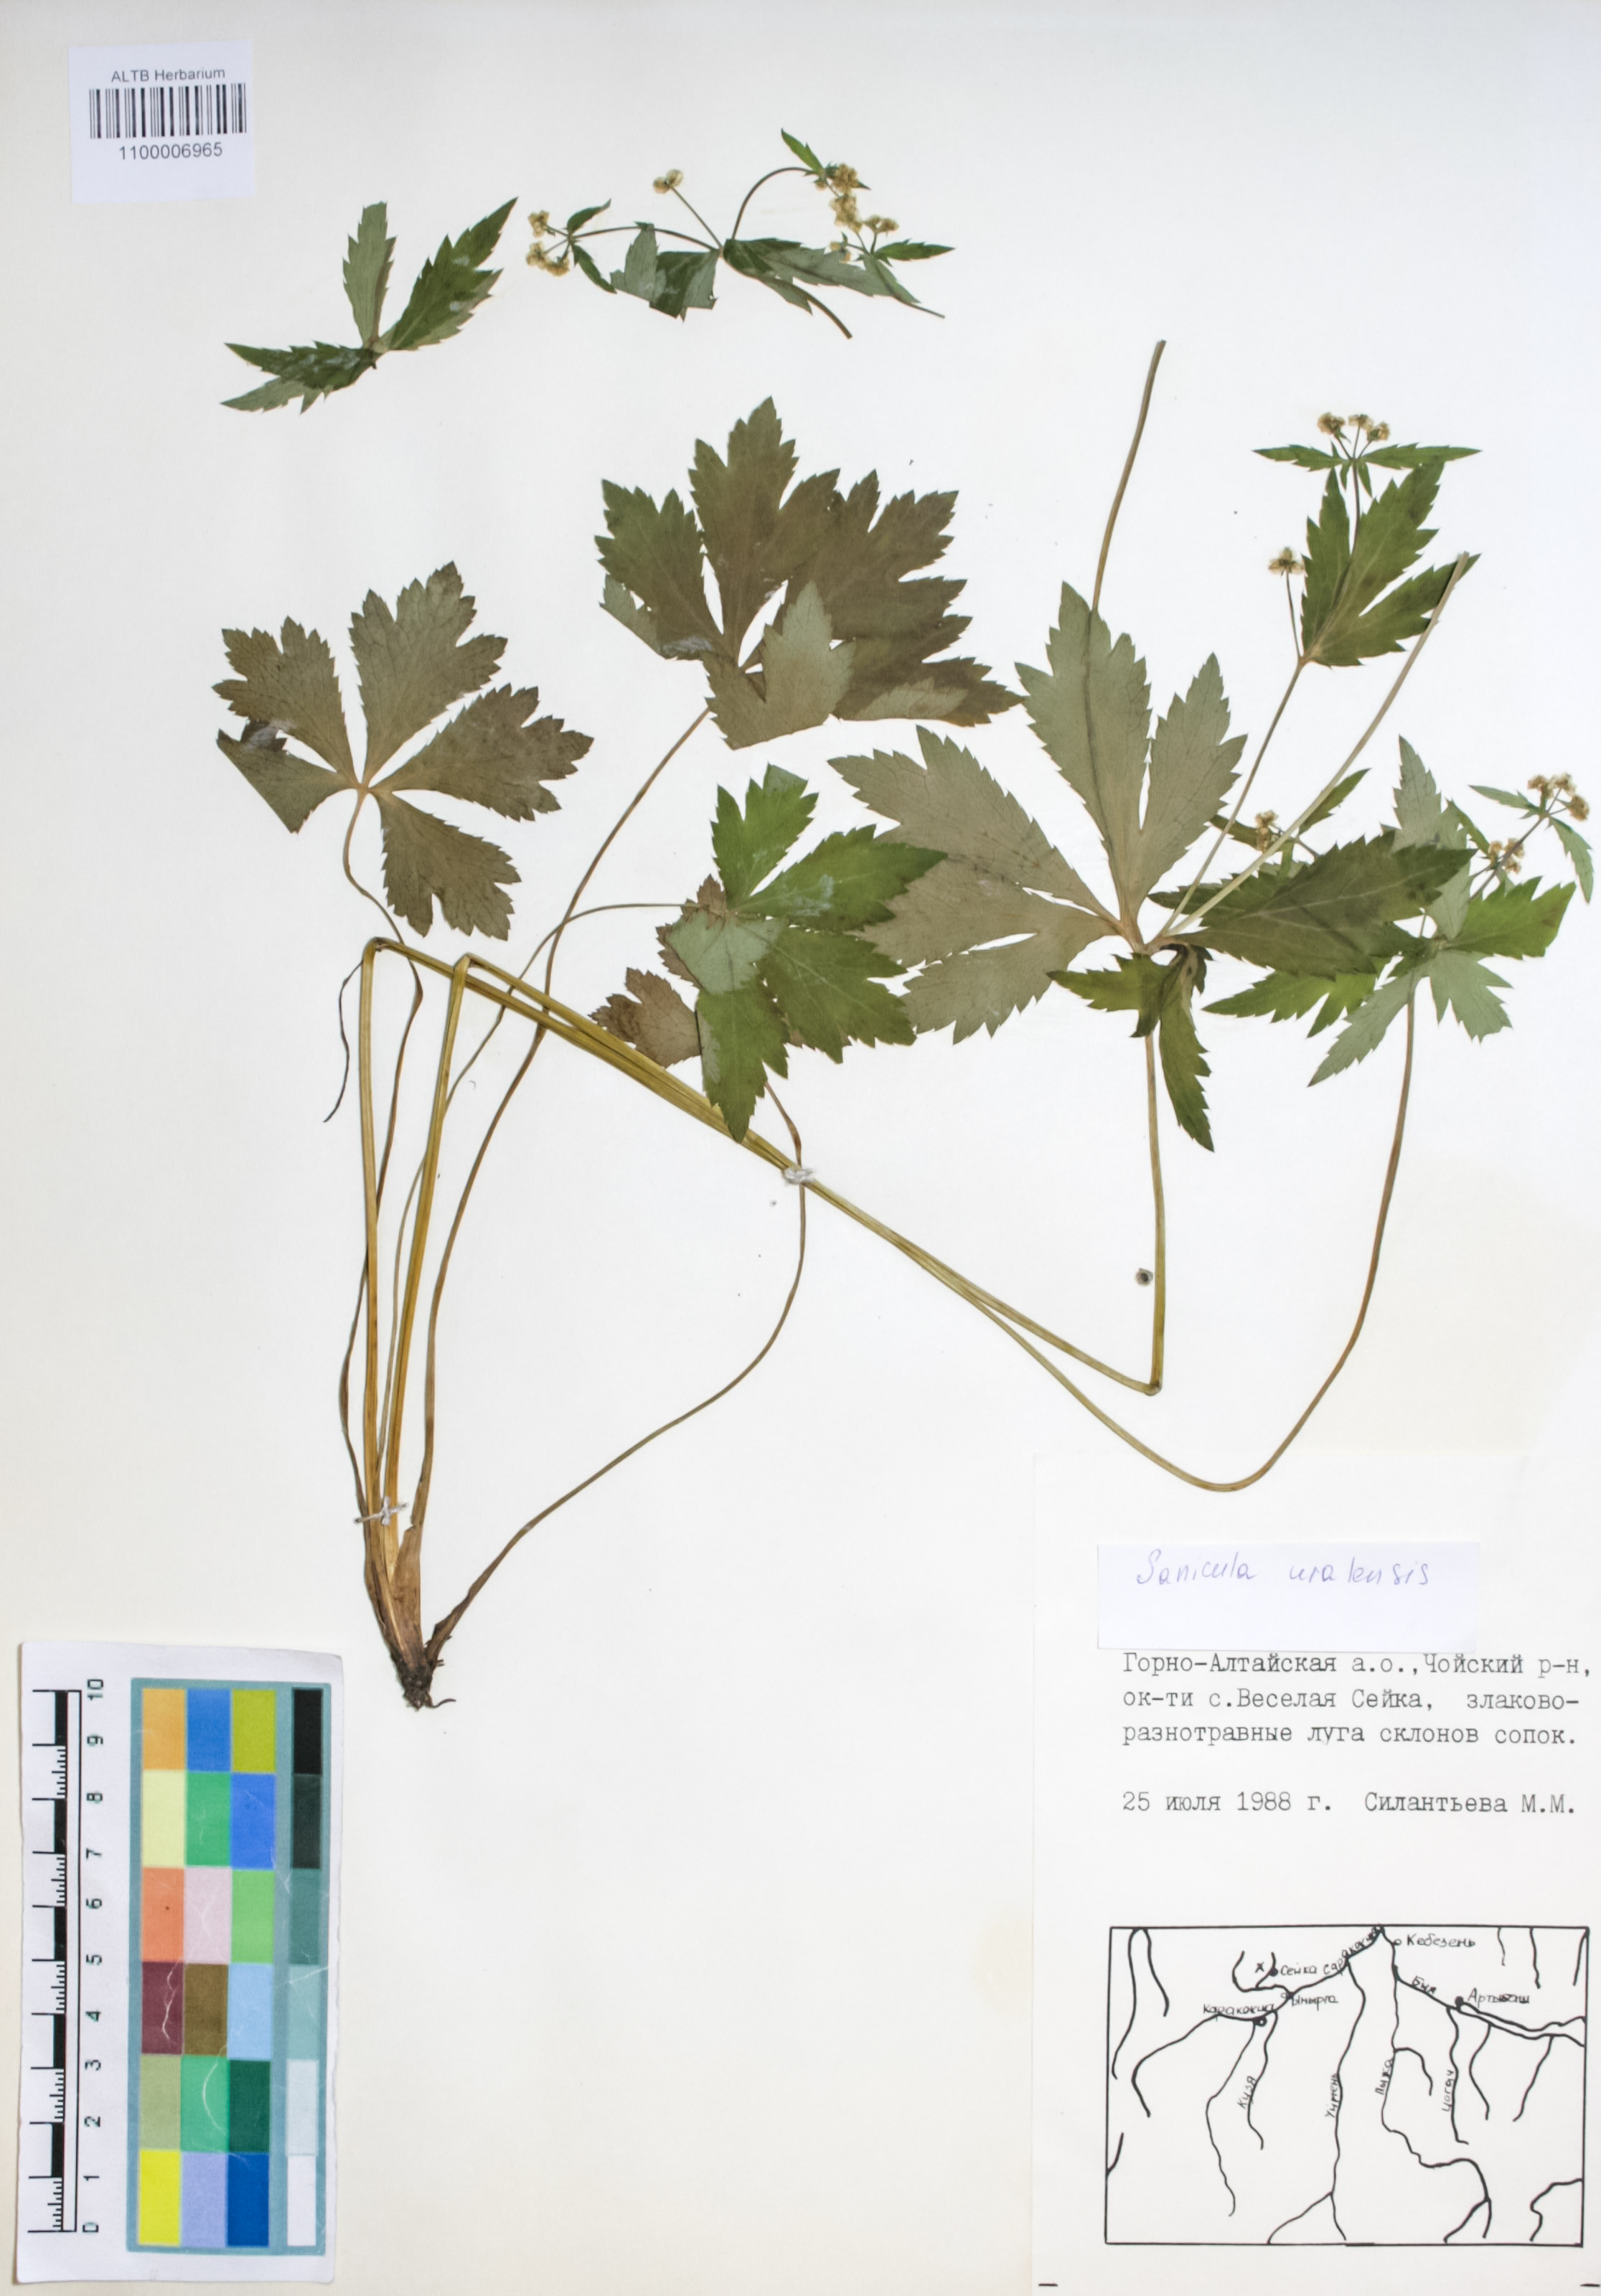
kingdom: Plantae
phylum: Tracheophyta
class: Magnoliopsida
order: Apiales
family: Apiaceae
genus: Sanicula
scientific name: Sanicula giraldii
